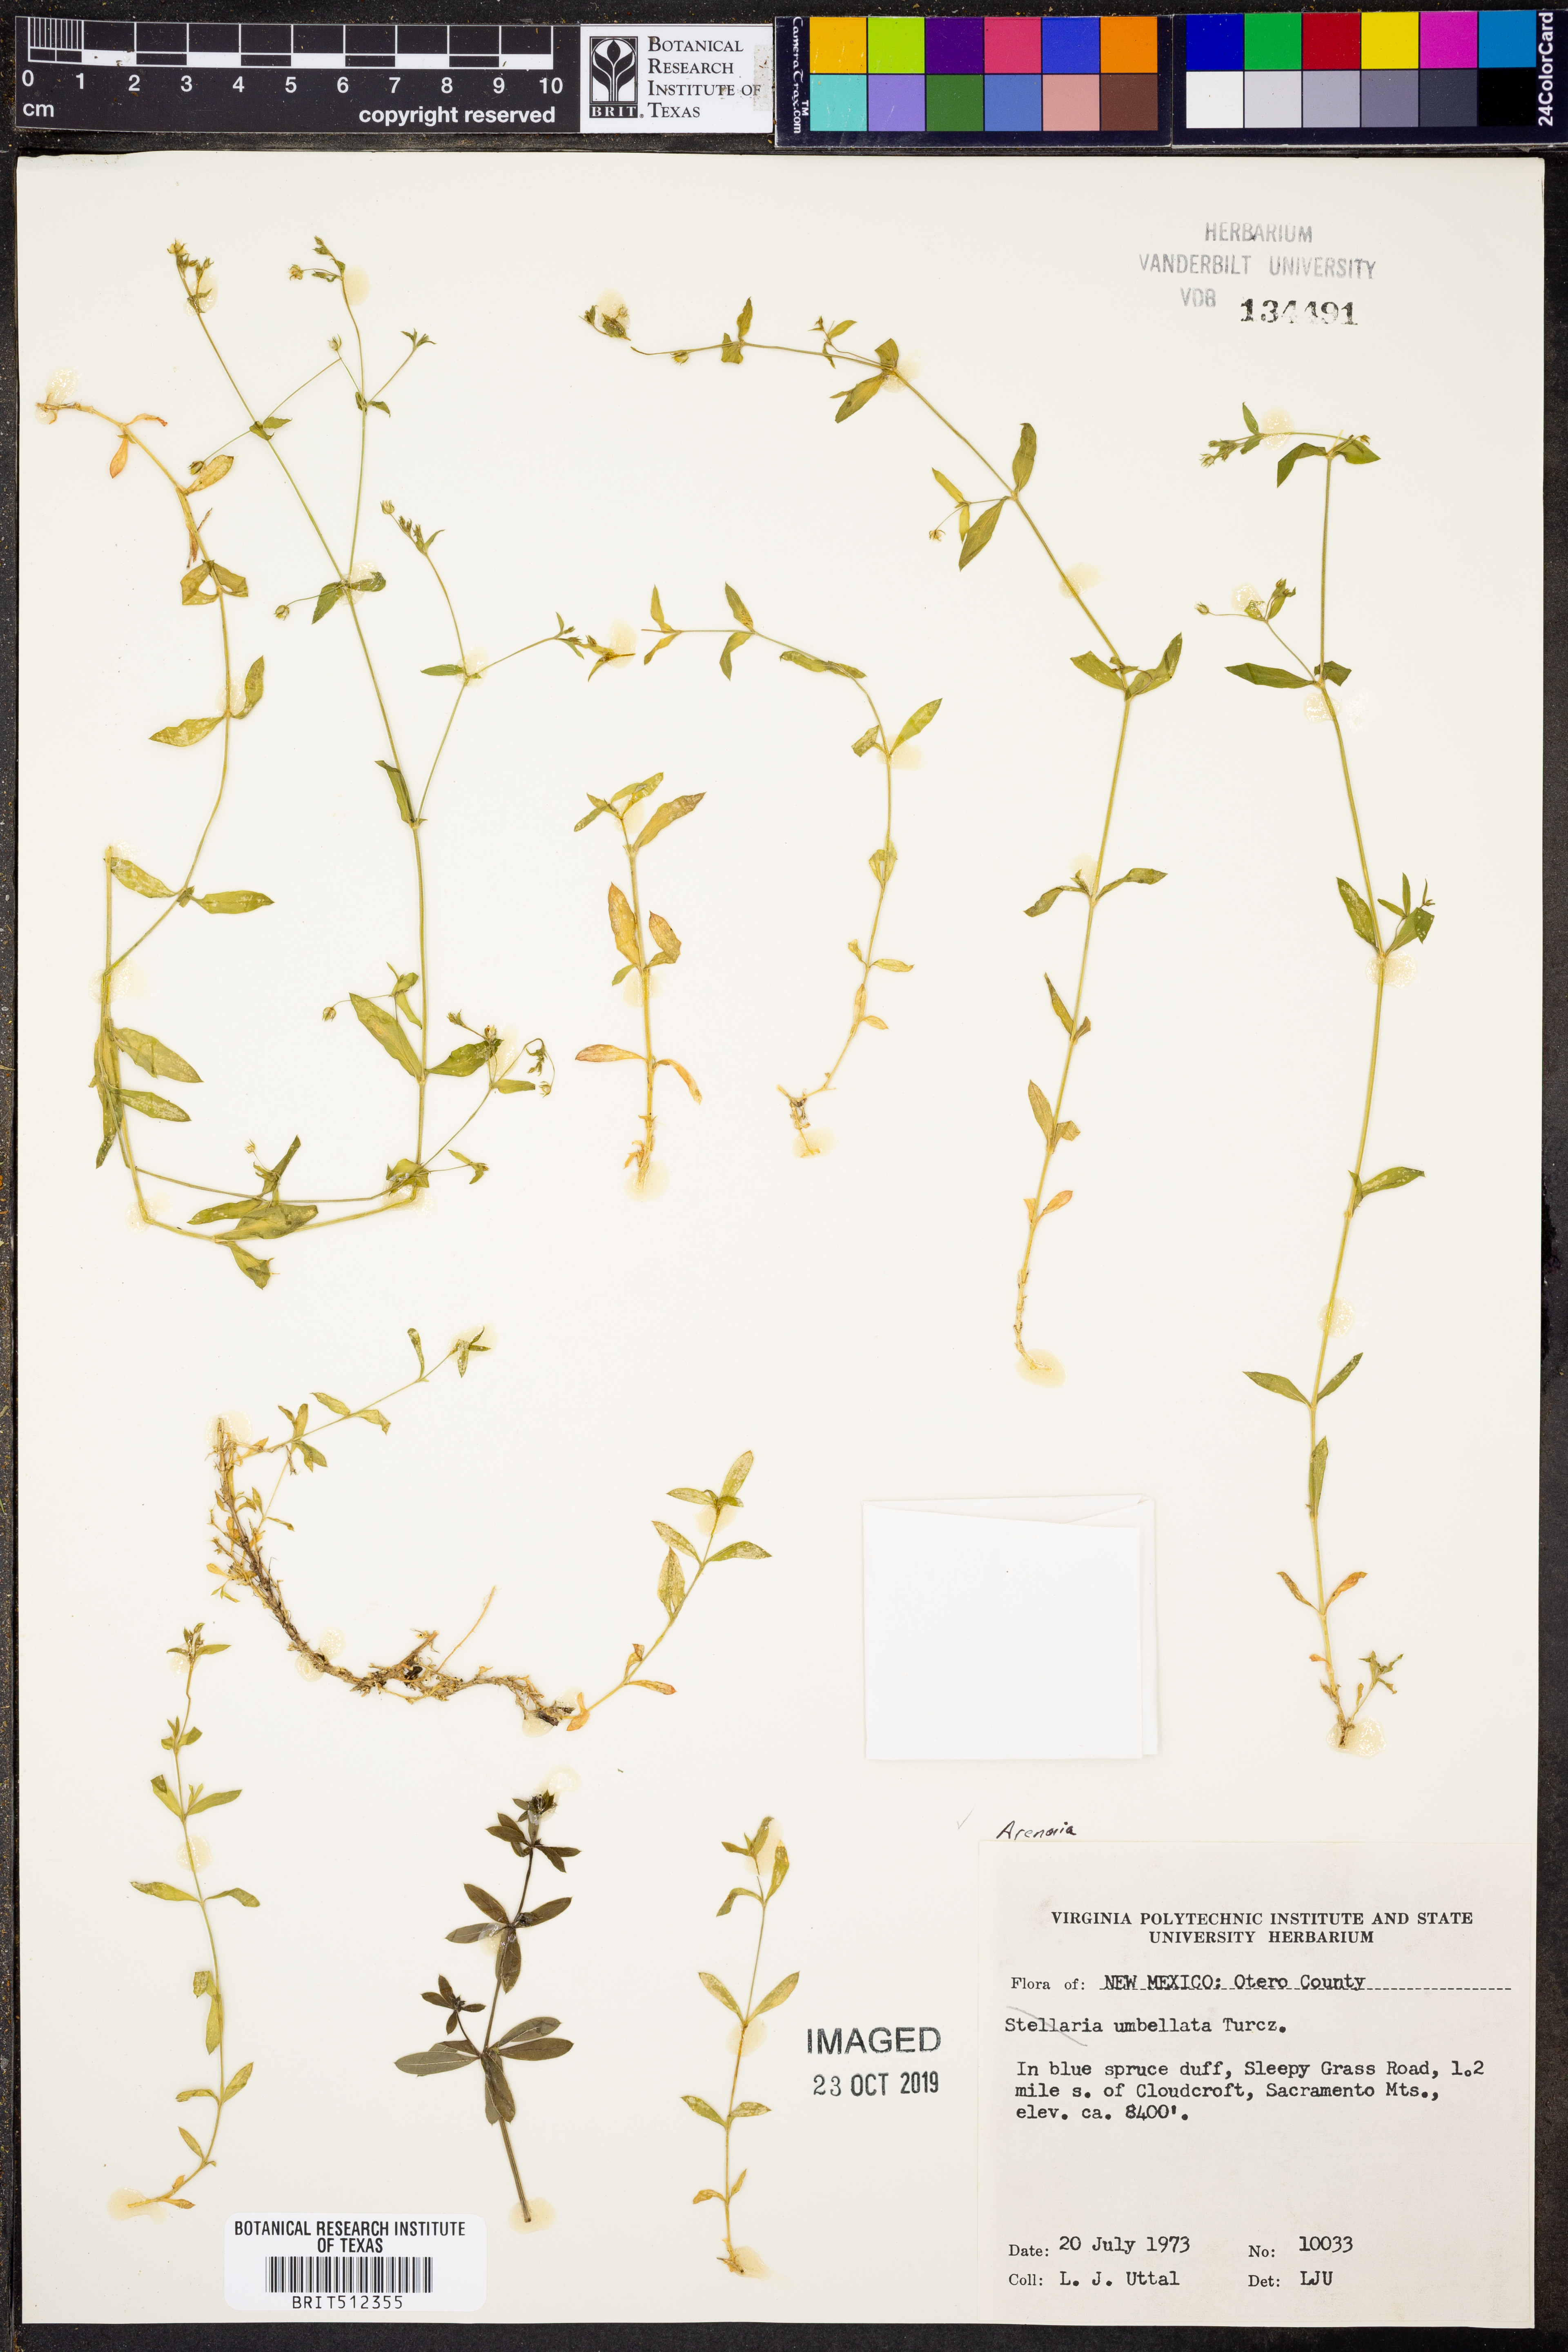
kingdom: Plantae
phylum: Tracheophyta
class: Magnoliopsida
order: Caryophyllales
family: Caryophyllaceae
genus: Stellaria
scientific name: Stellaria irrigua
